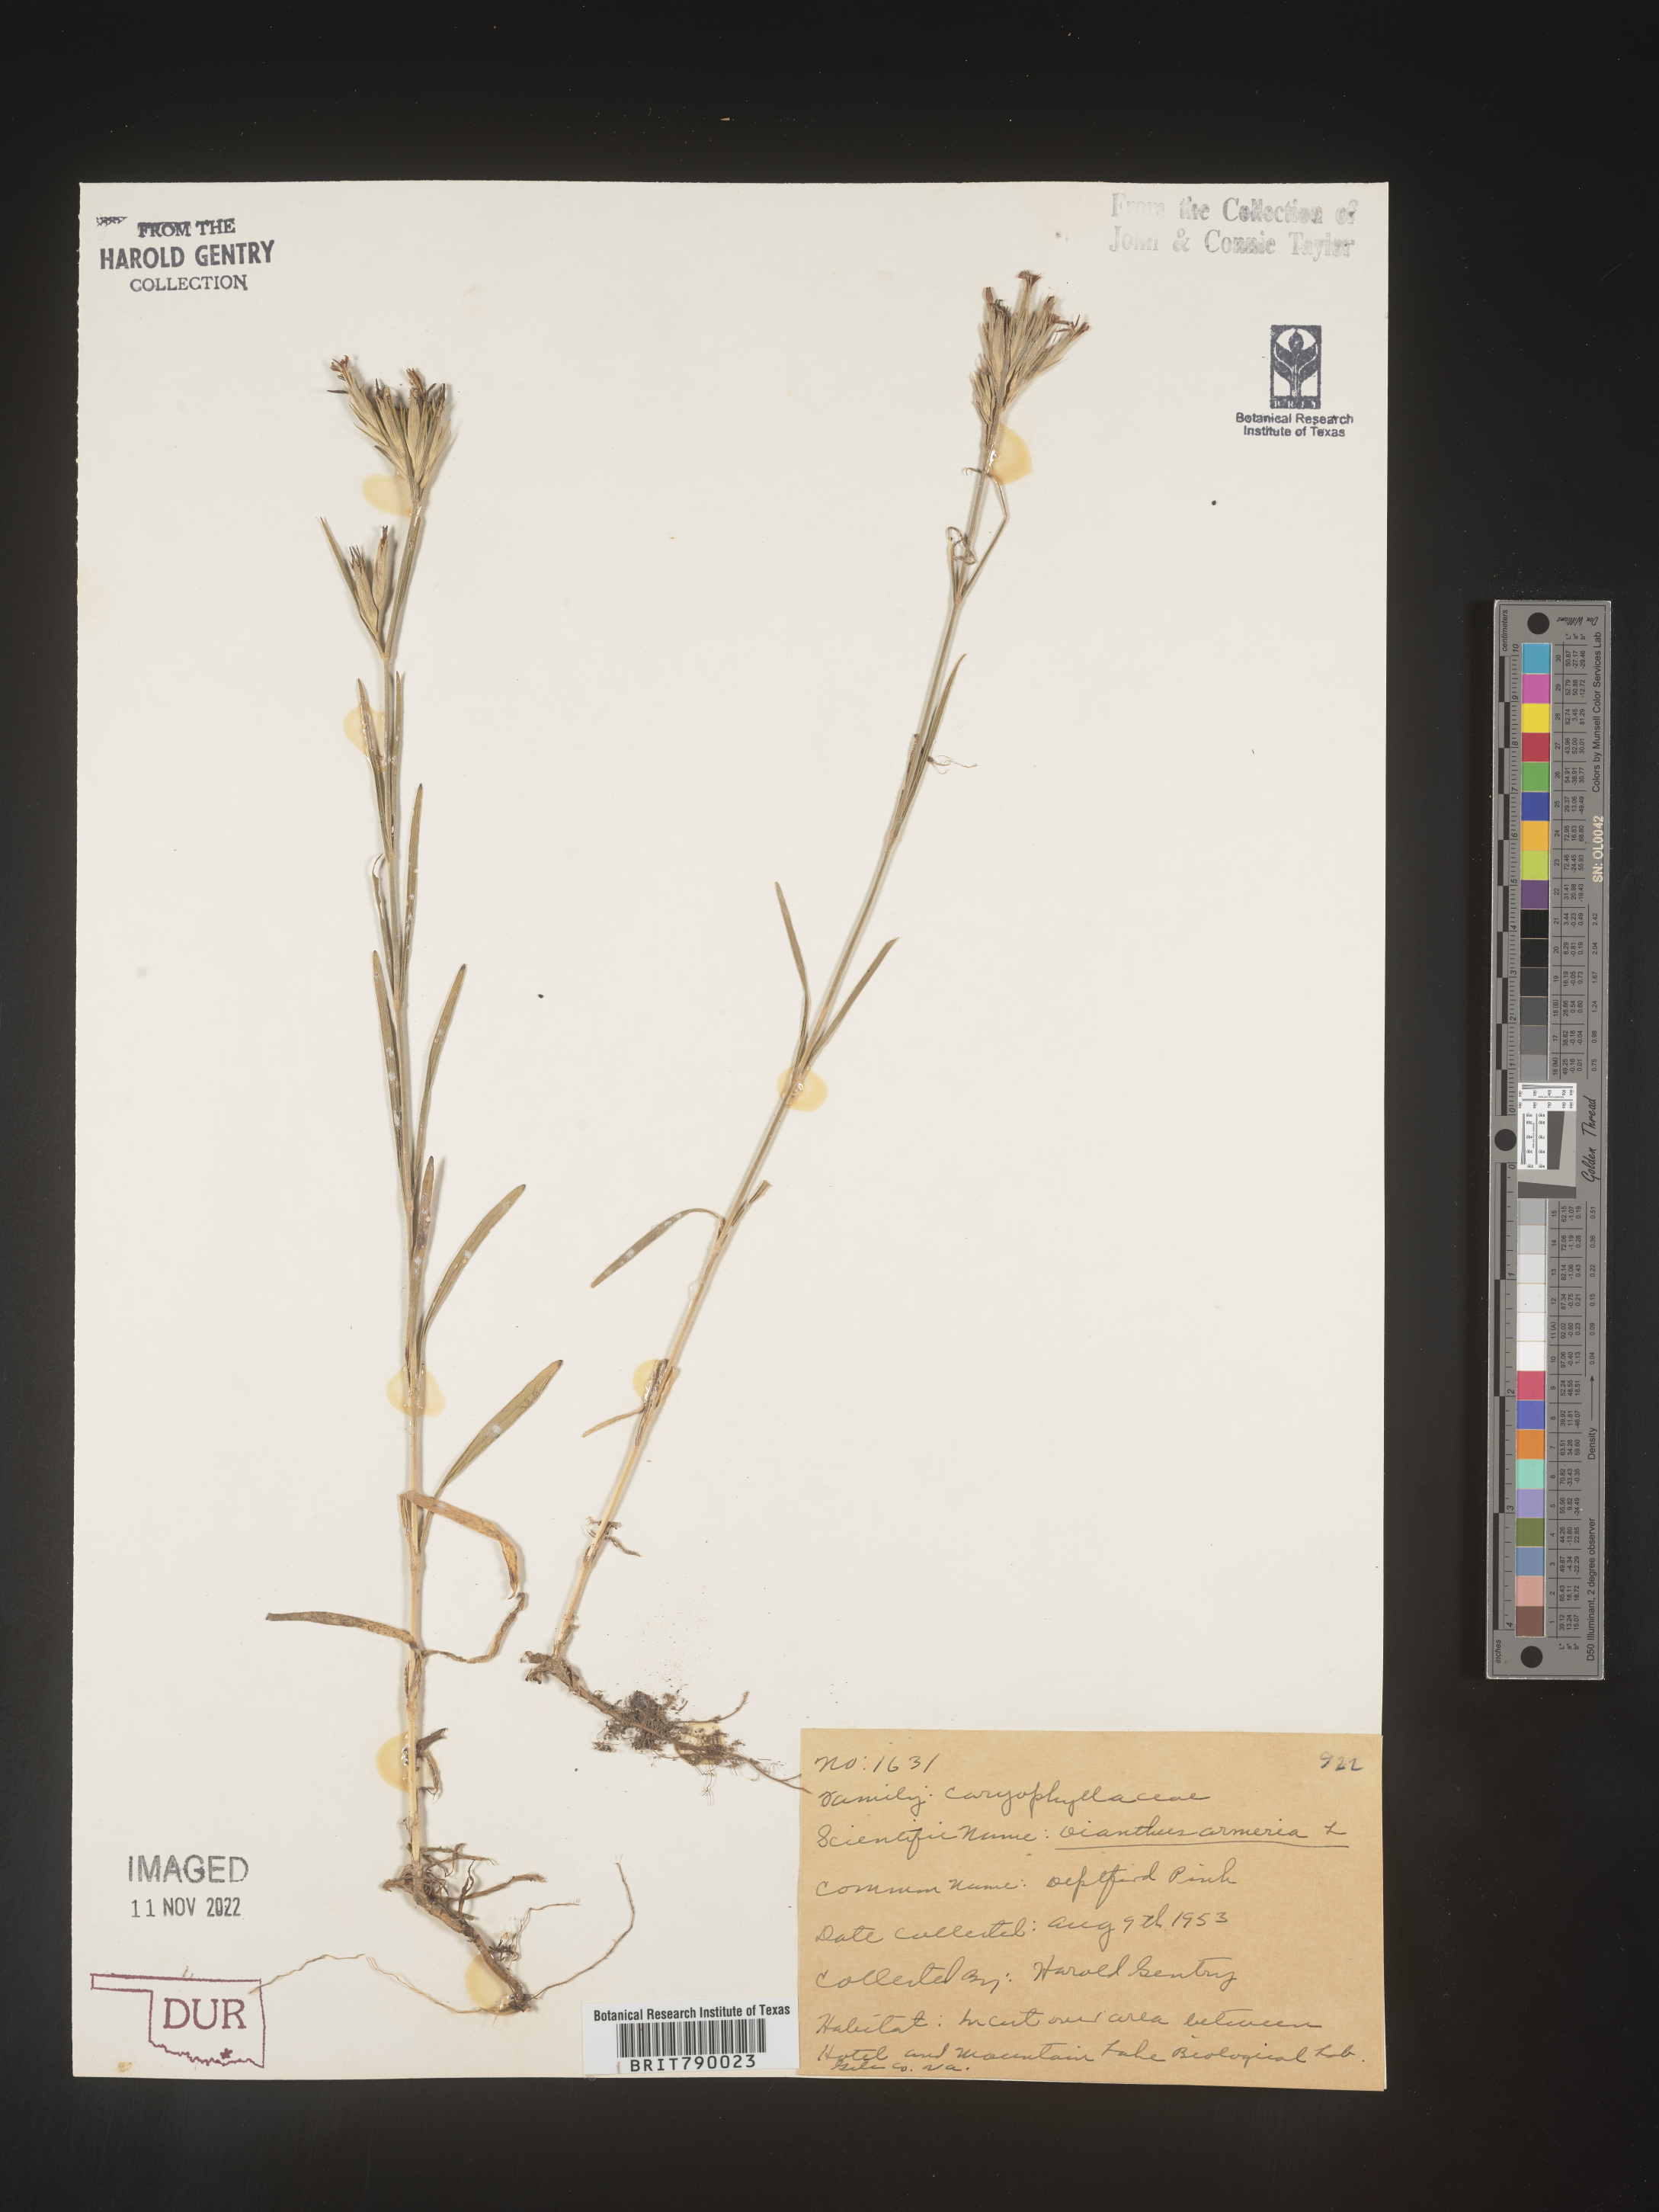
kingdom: Plantae
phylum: Tracheophyta
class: Magnoliopsida
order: Caryophyllales
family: Caryophyllaceae
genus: Dianthus
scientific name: Dianthus armeria
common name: Deptford pink
